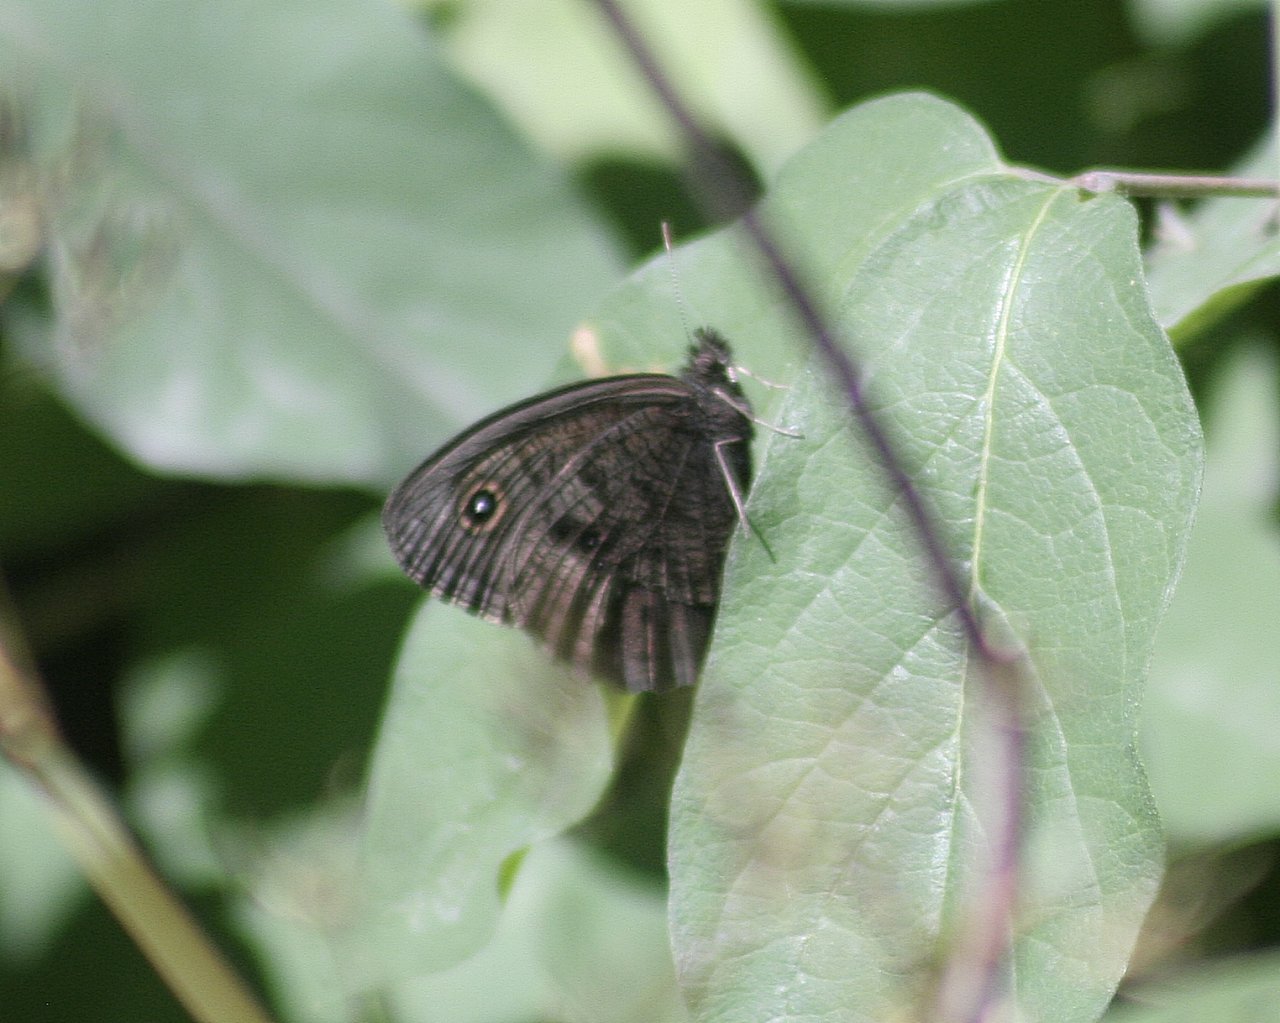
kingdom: Animalia
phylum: Arthropoda
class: Insecta
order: Lepidoptera
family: Nymphalidae
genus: Cercyonis
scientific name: Cercyonis pegala
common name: Common Wood-Nymph
